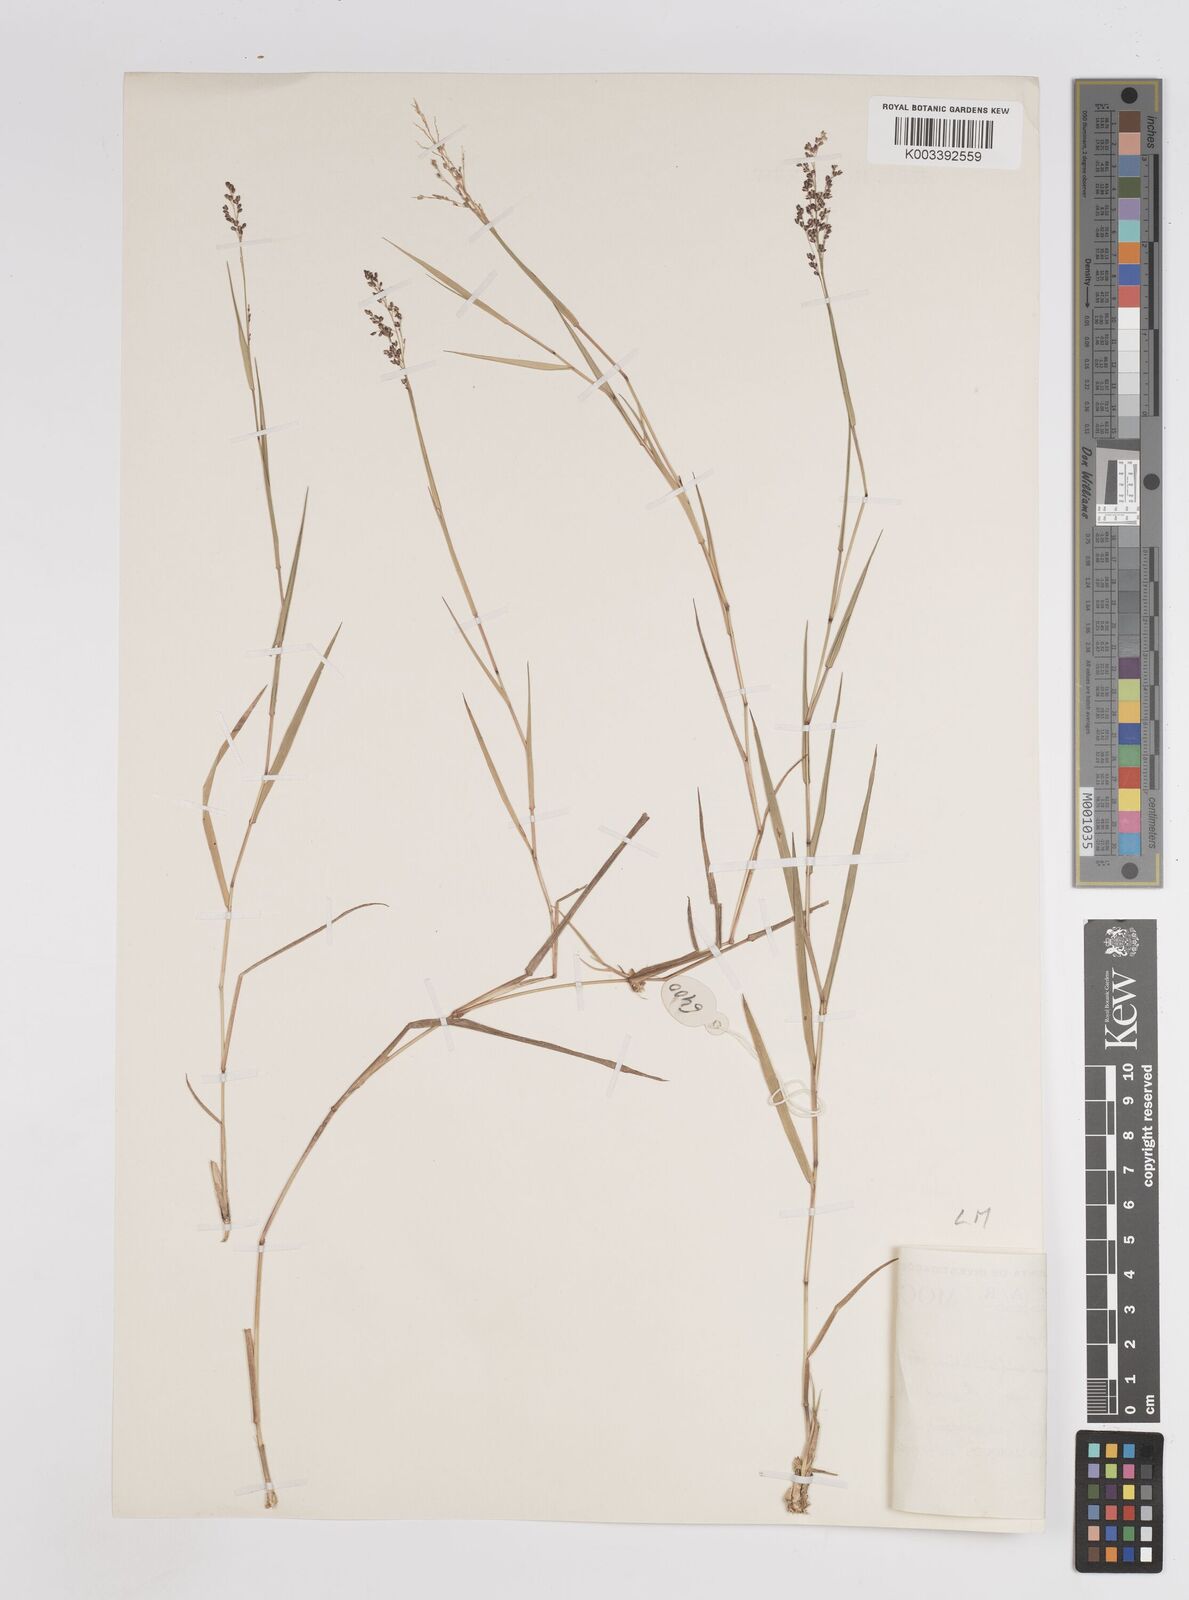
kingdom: Plantae
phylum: Tracheophyta
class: Liliopsida
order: Poales
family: Poaceae
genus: Panicum
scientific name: Panicum subflabellatum
